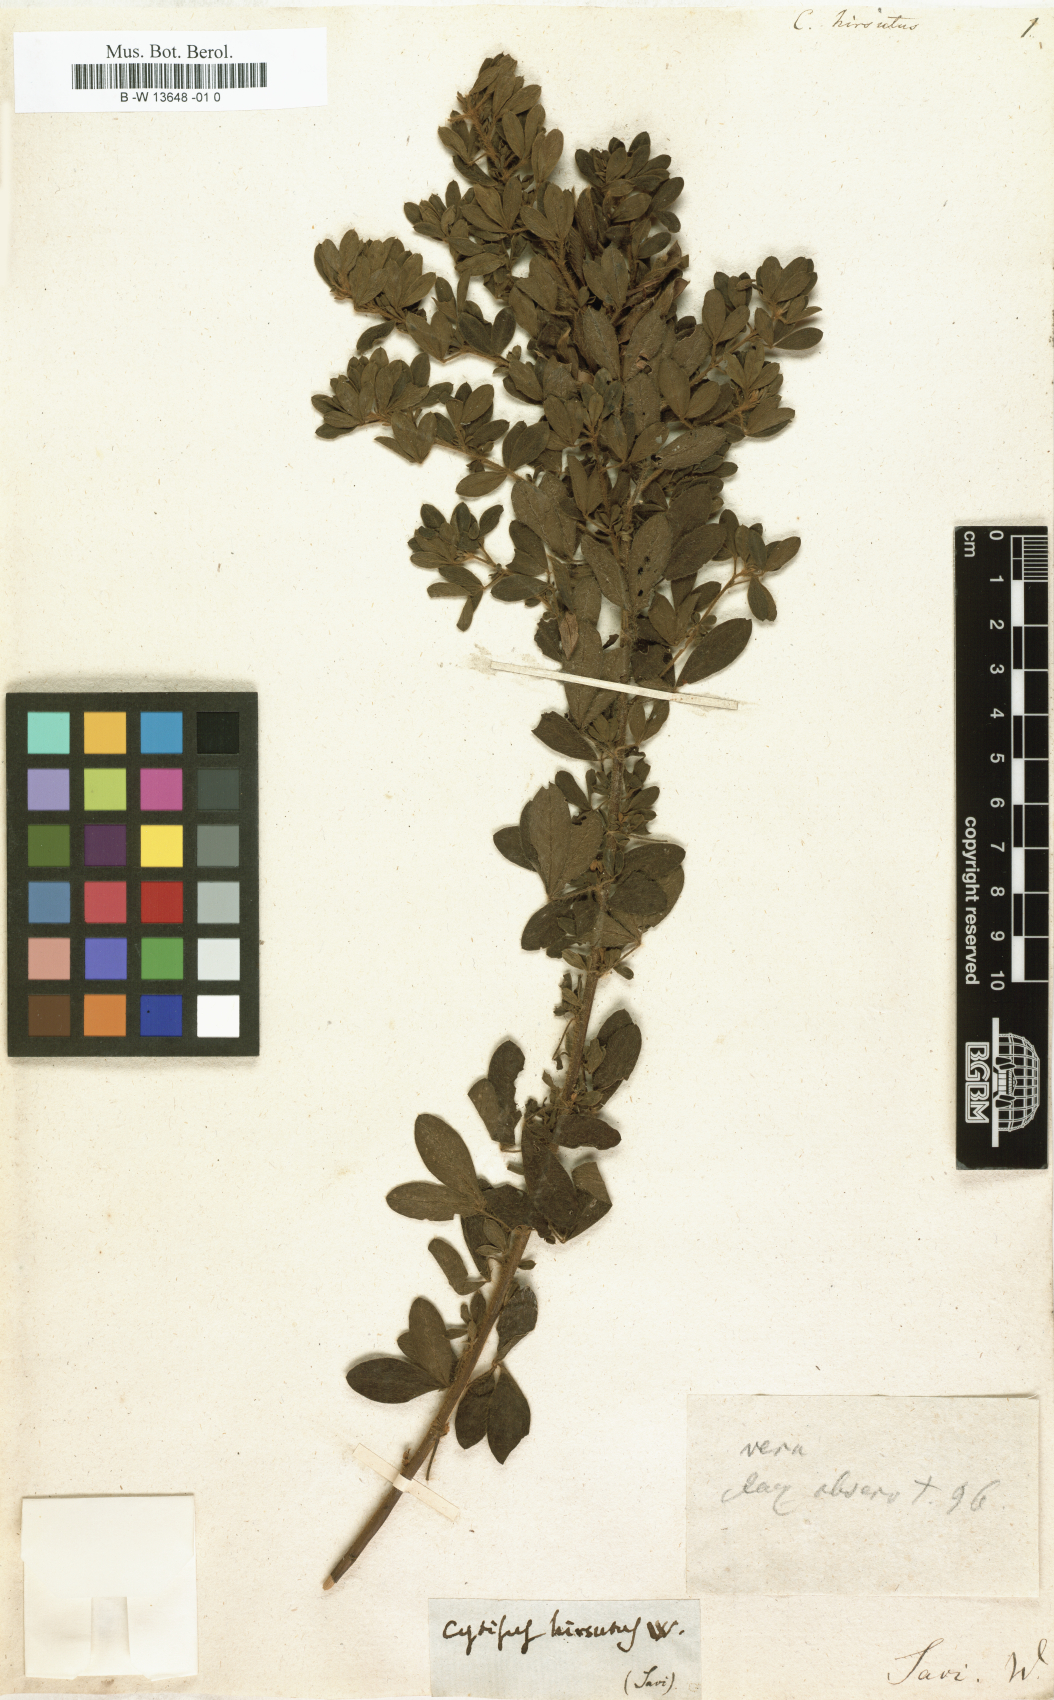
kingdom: Plantae
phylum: Tracheophyta
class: Magnoliopsida
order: Fabales
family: Fabaceae
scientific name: Fabaceae
